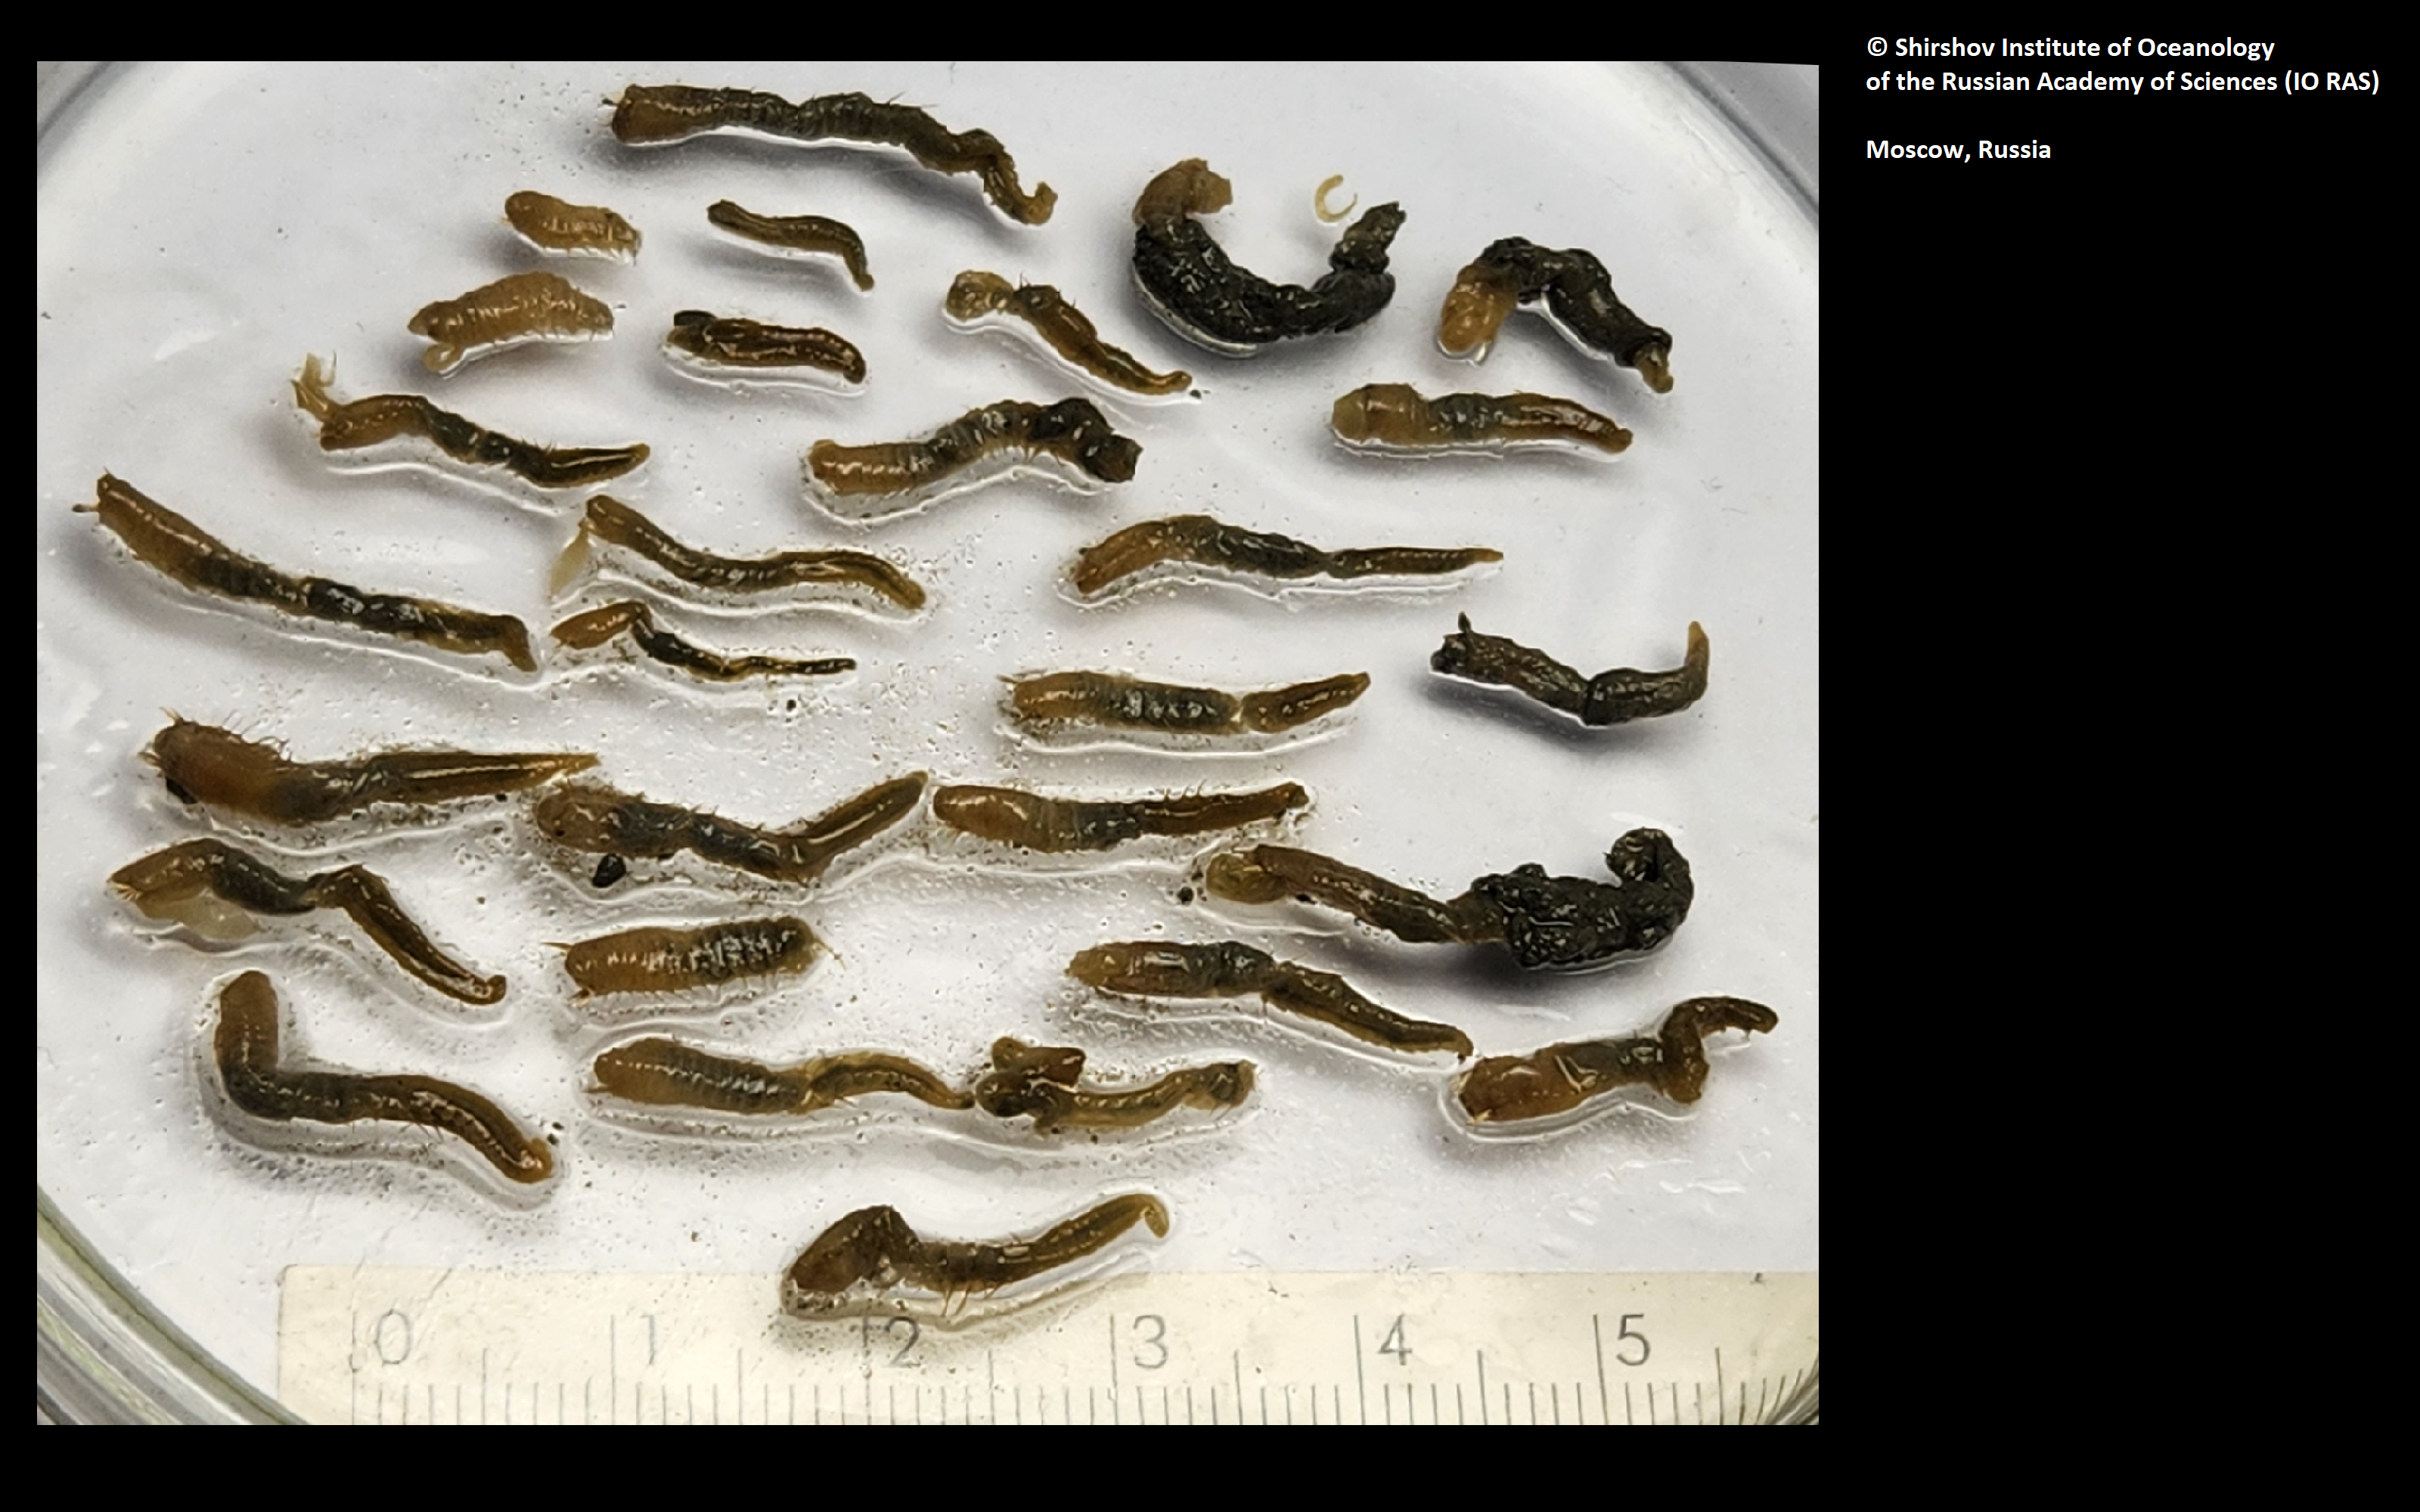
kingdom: Animalia
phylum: Annelida
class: Polychaeta
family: Ampharetidae
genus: Amphicteis
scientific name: Amphicteis bifolium
